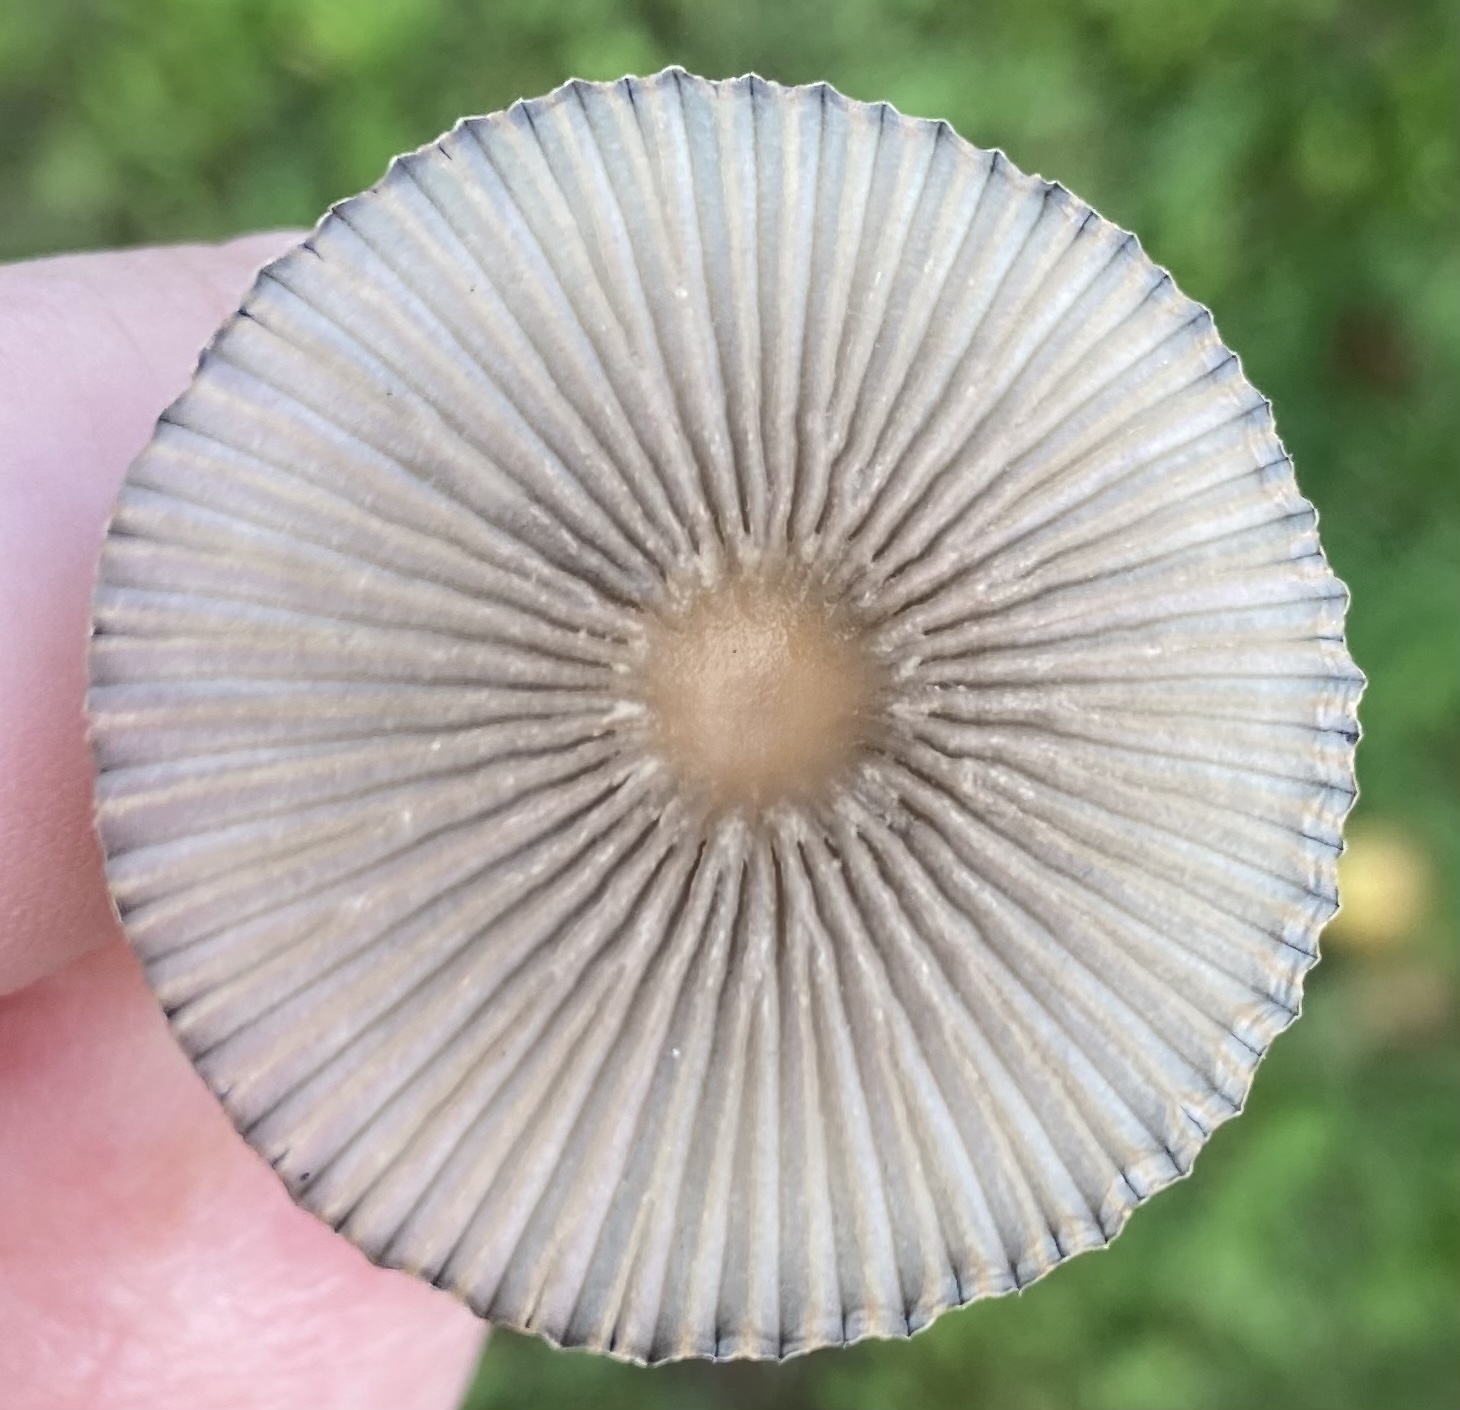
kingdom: Fungi
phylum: Basidiomycota
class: Agaricomycetes
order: Agaricales
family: Psathyrellaceae
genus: Parasola
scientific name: Parasola
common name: hjulhat
